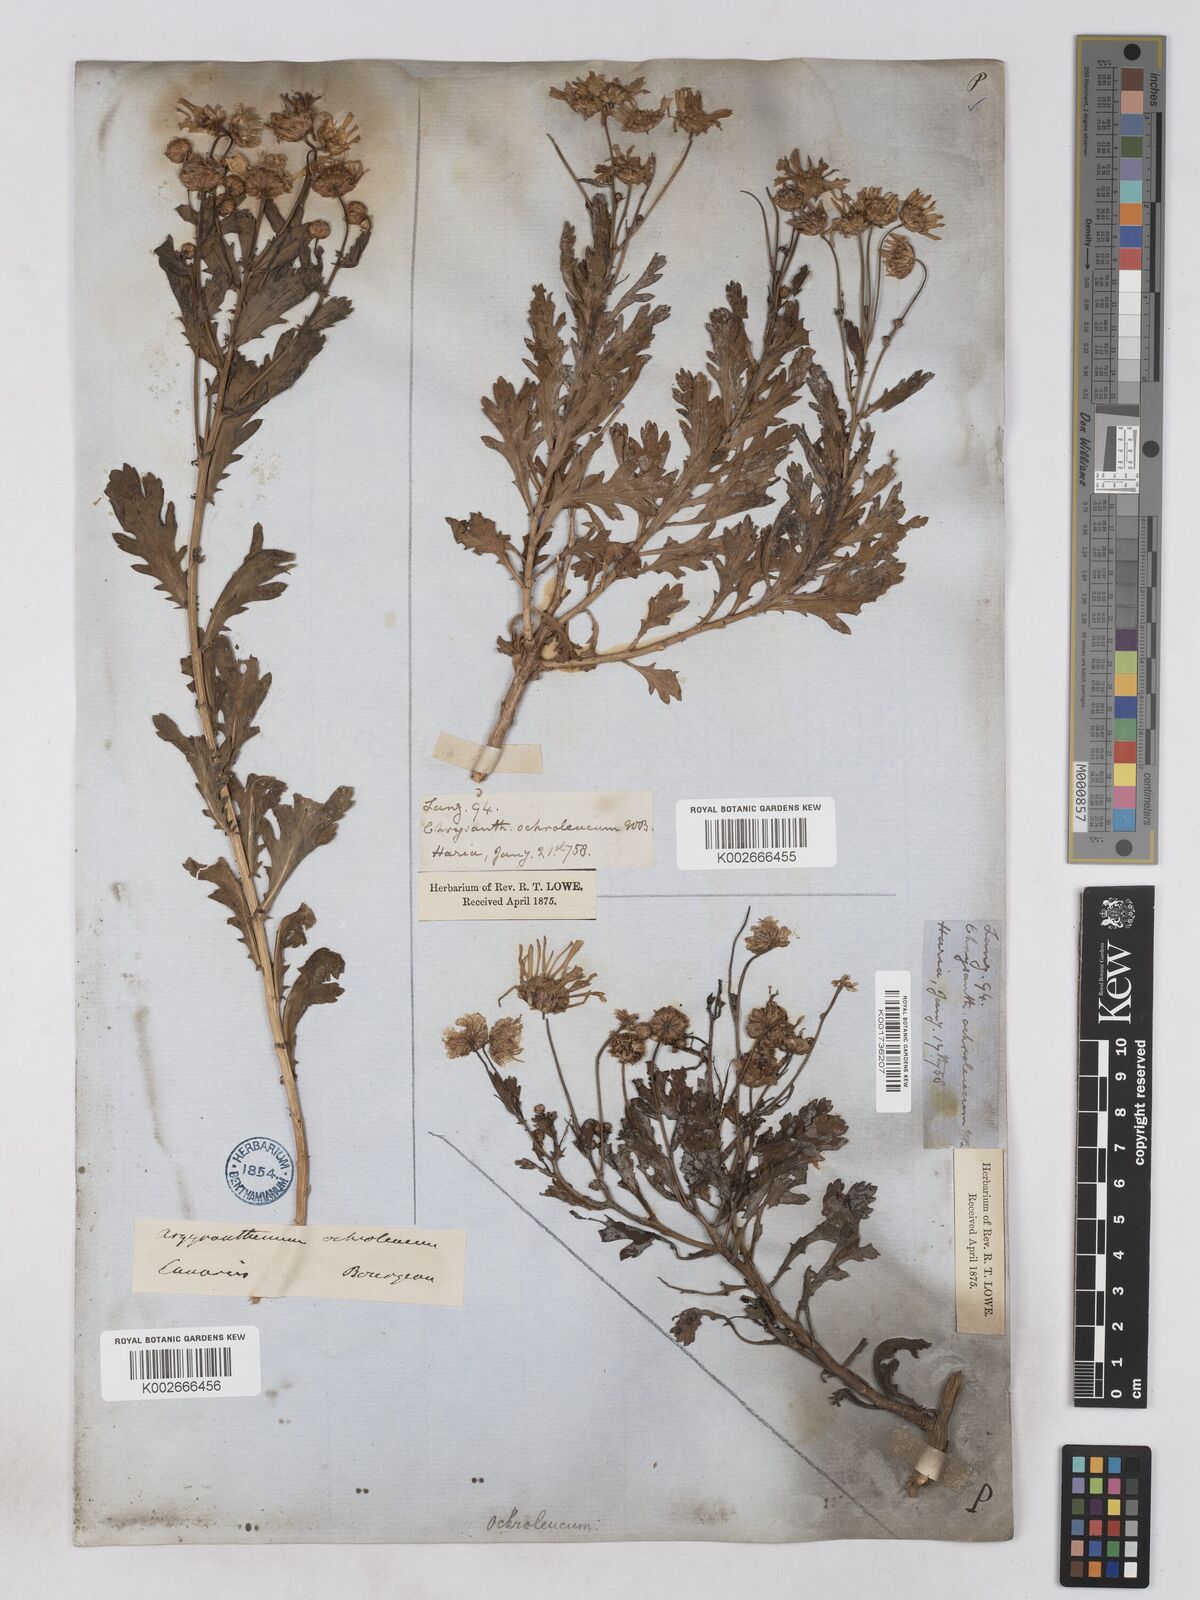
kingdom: Plantae
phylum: Tracheophyta
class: Magnoliopsida
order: Asterales
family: Asteraceae
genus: Argyranthemum
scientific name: Argyranthemum maderense
